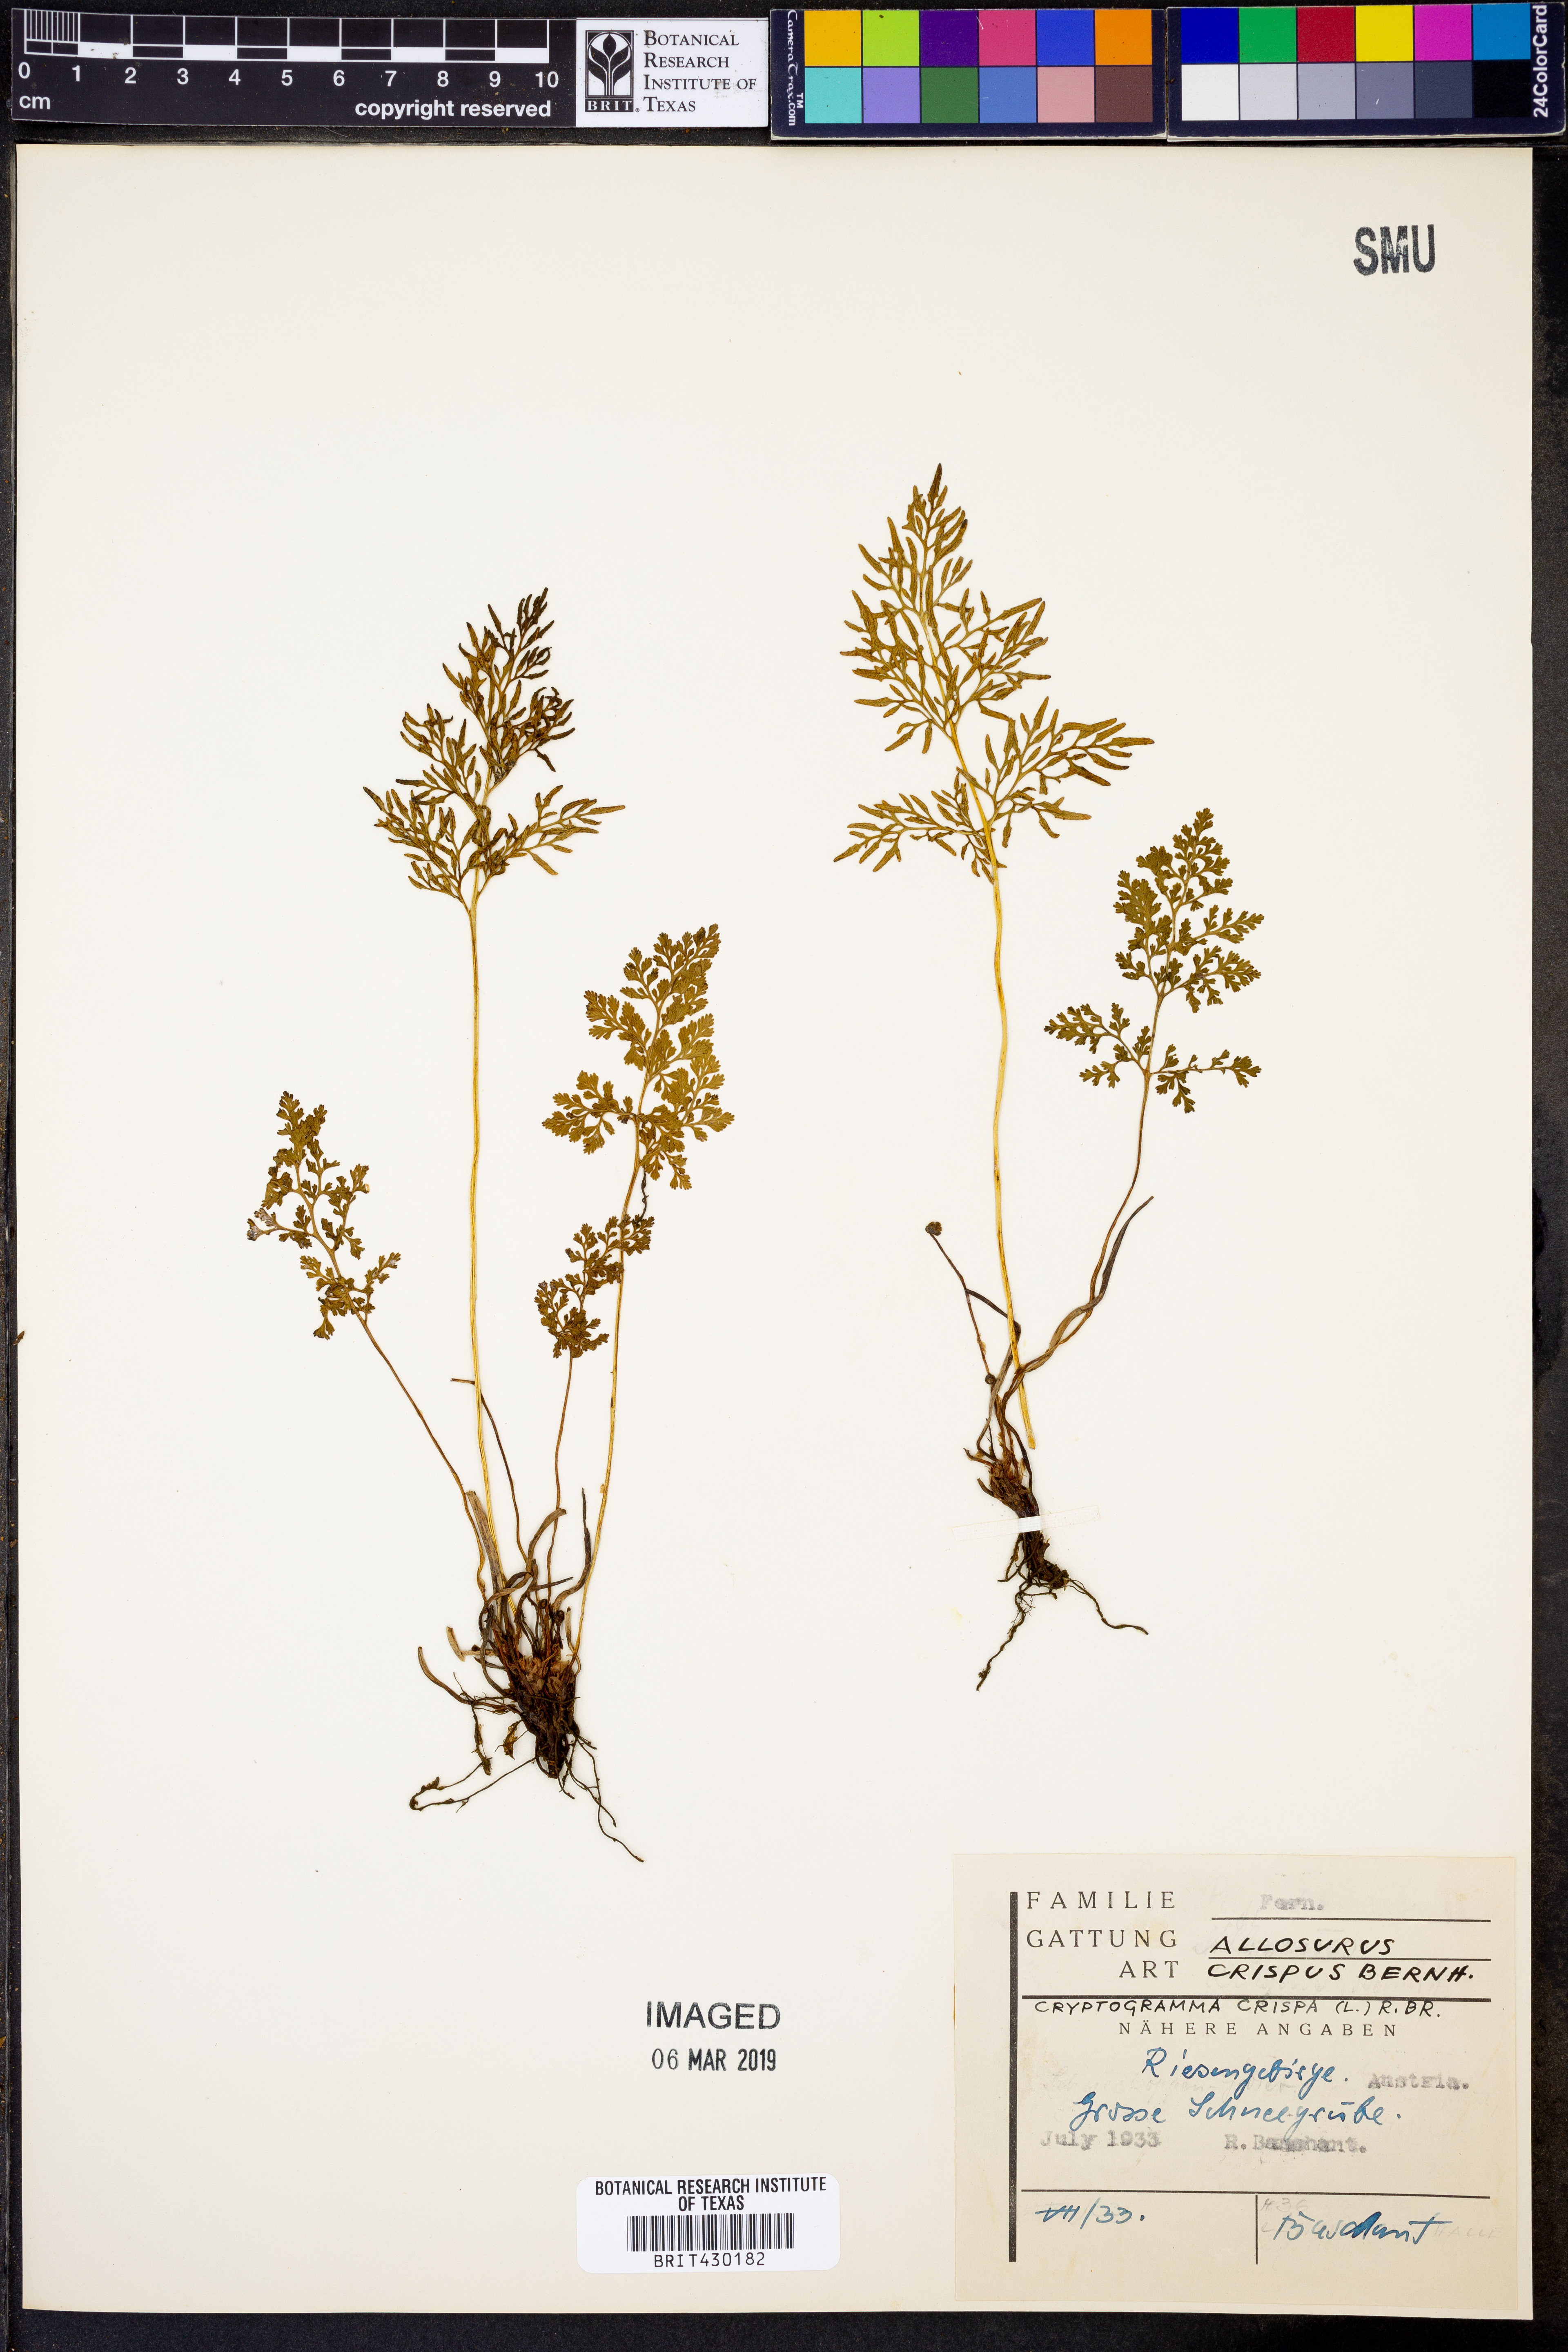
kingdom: Plantae
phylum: Tracheophyta
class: Polypodiopsida
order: Polypodiales
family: Pteridaceae
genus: Cryptogramma
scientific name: Cryptogramma crispa
